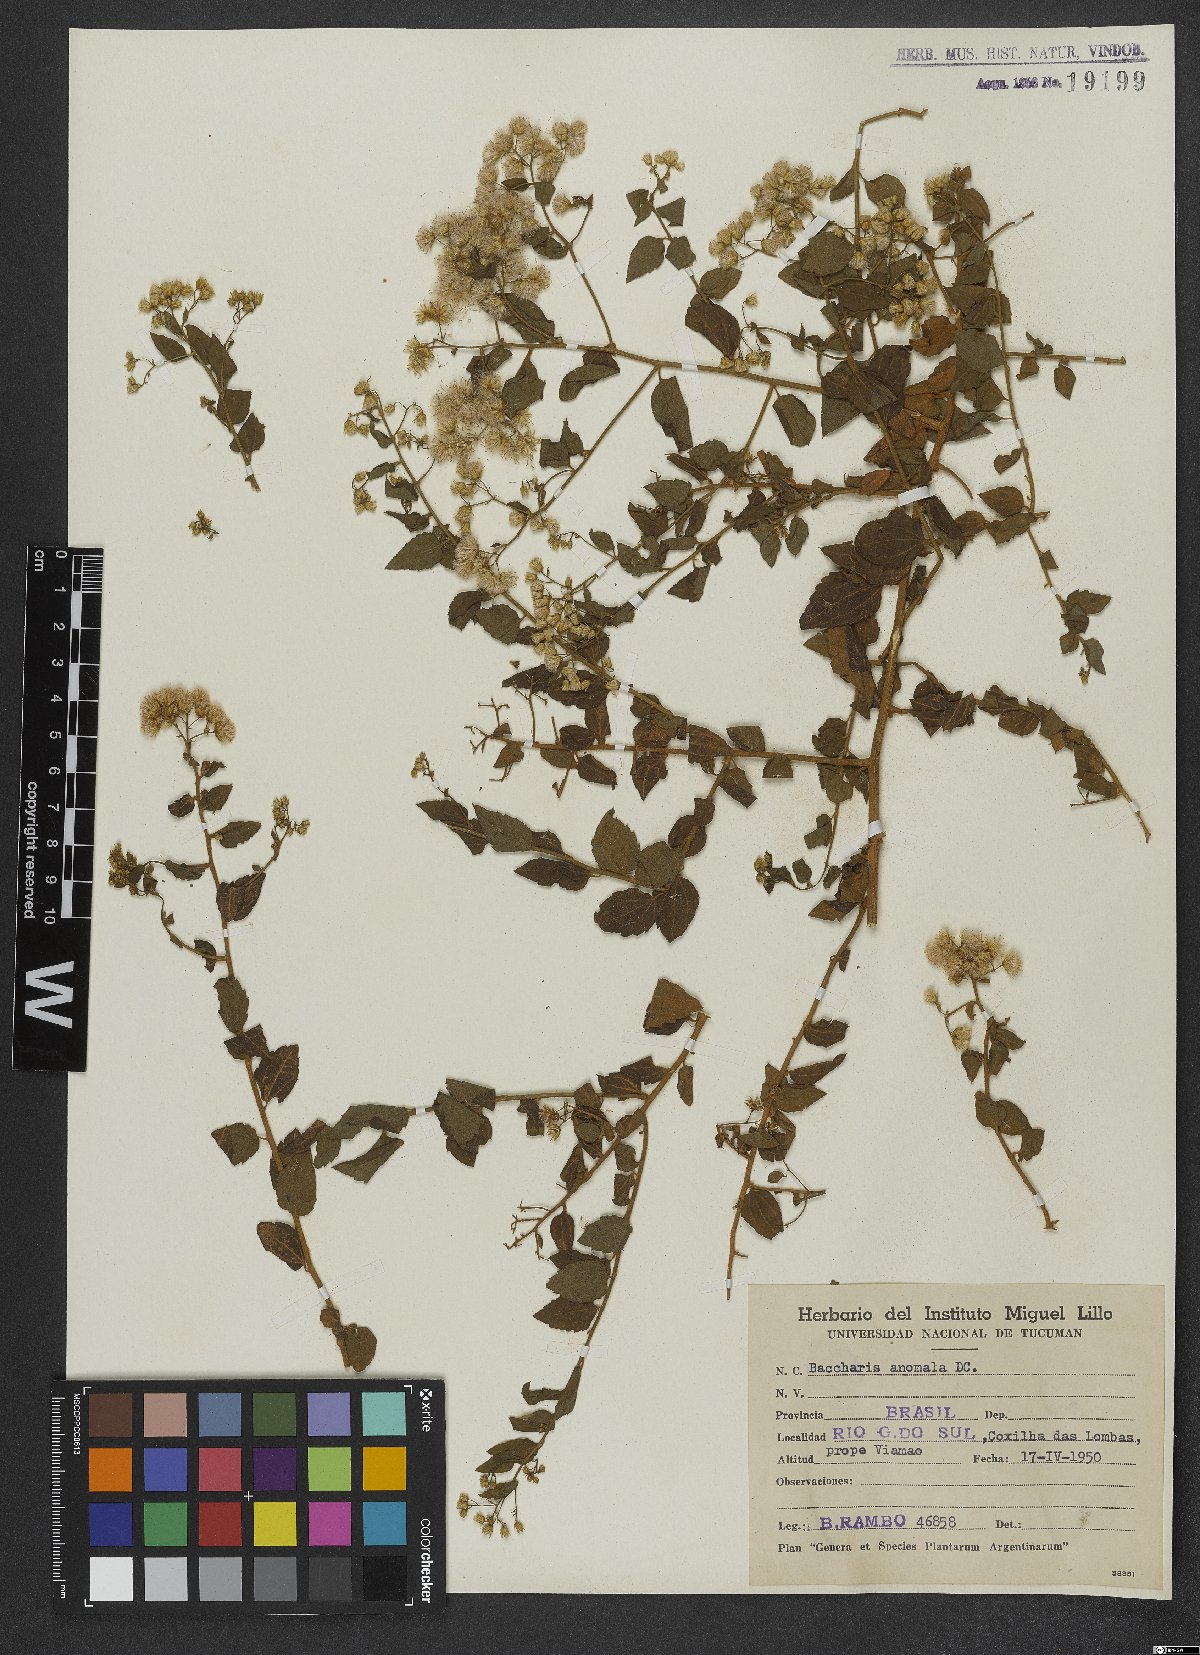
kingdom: Plantae
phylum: Tracheophyta
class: Magnoliopsida
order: Asterales
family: Asteraceae
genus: Baccharis
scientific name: Baccharis anomala
